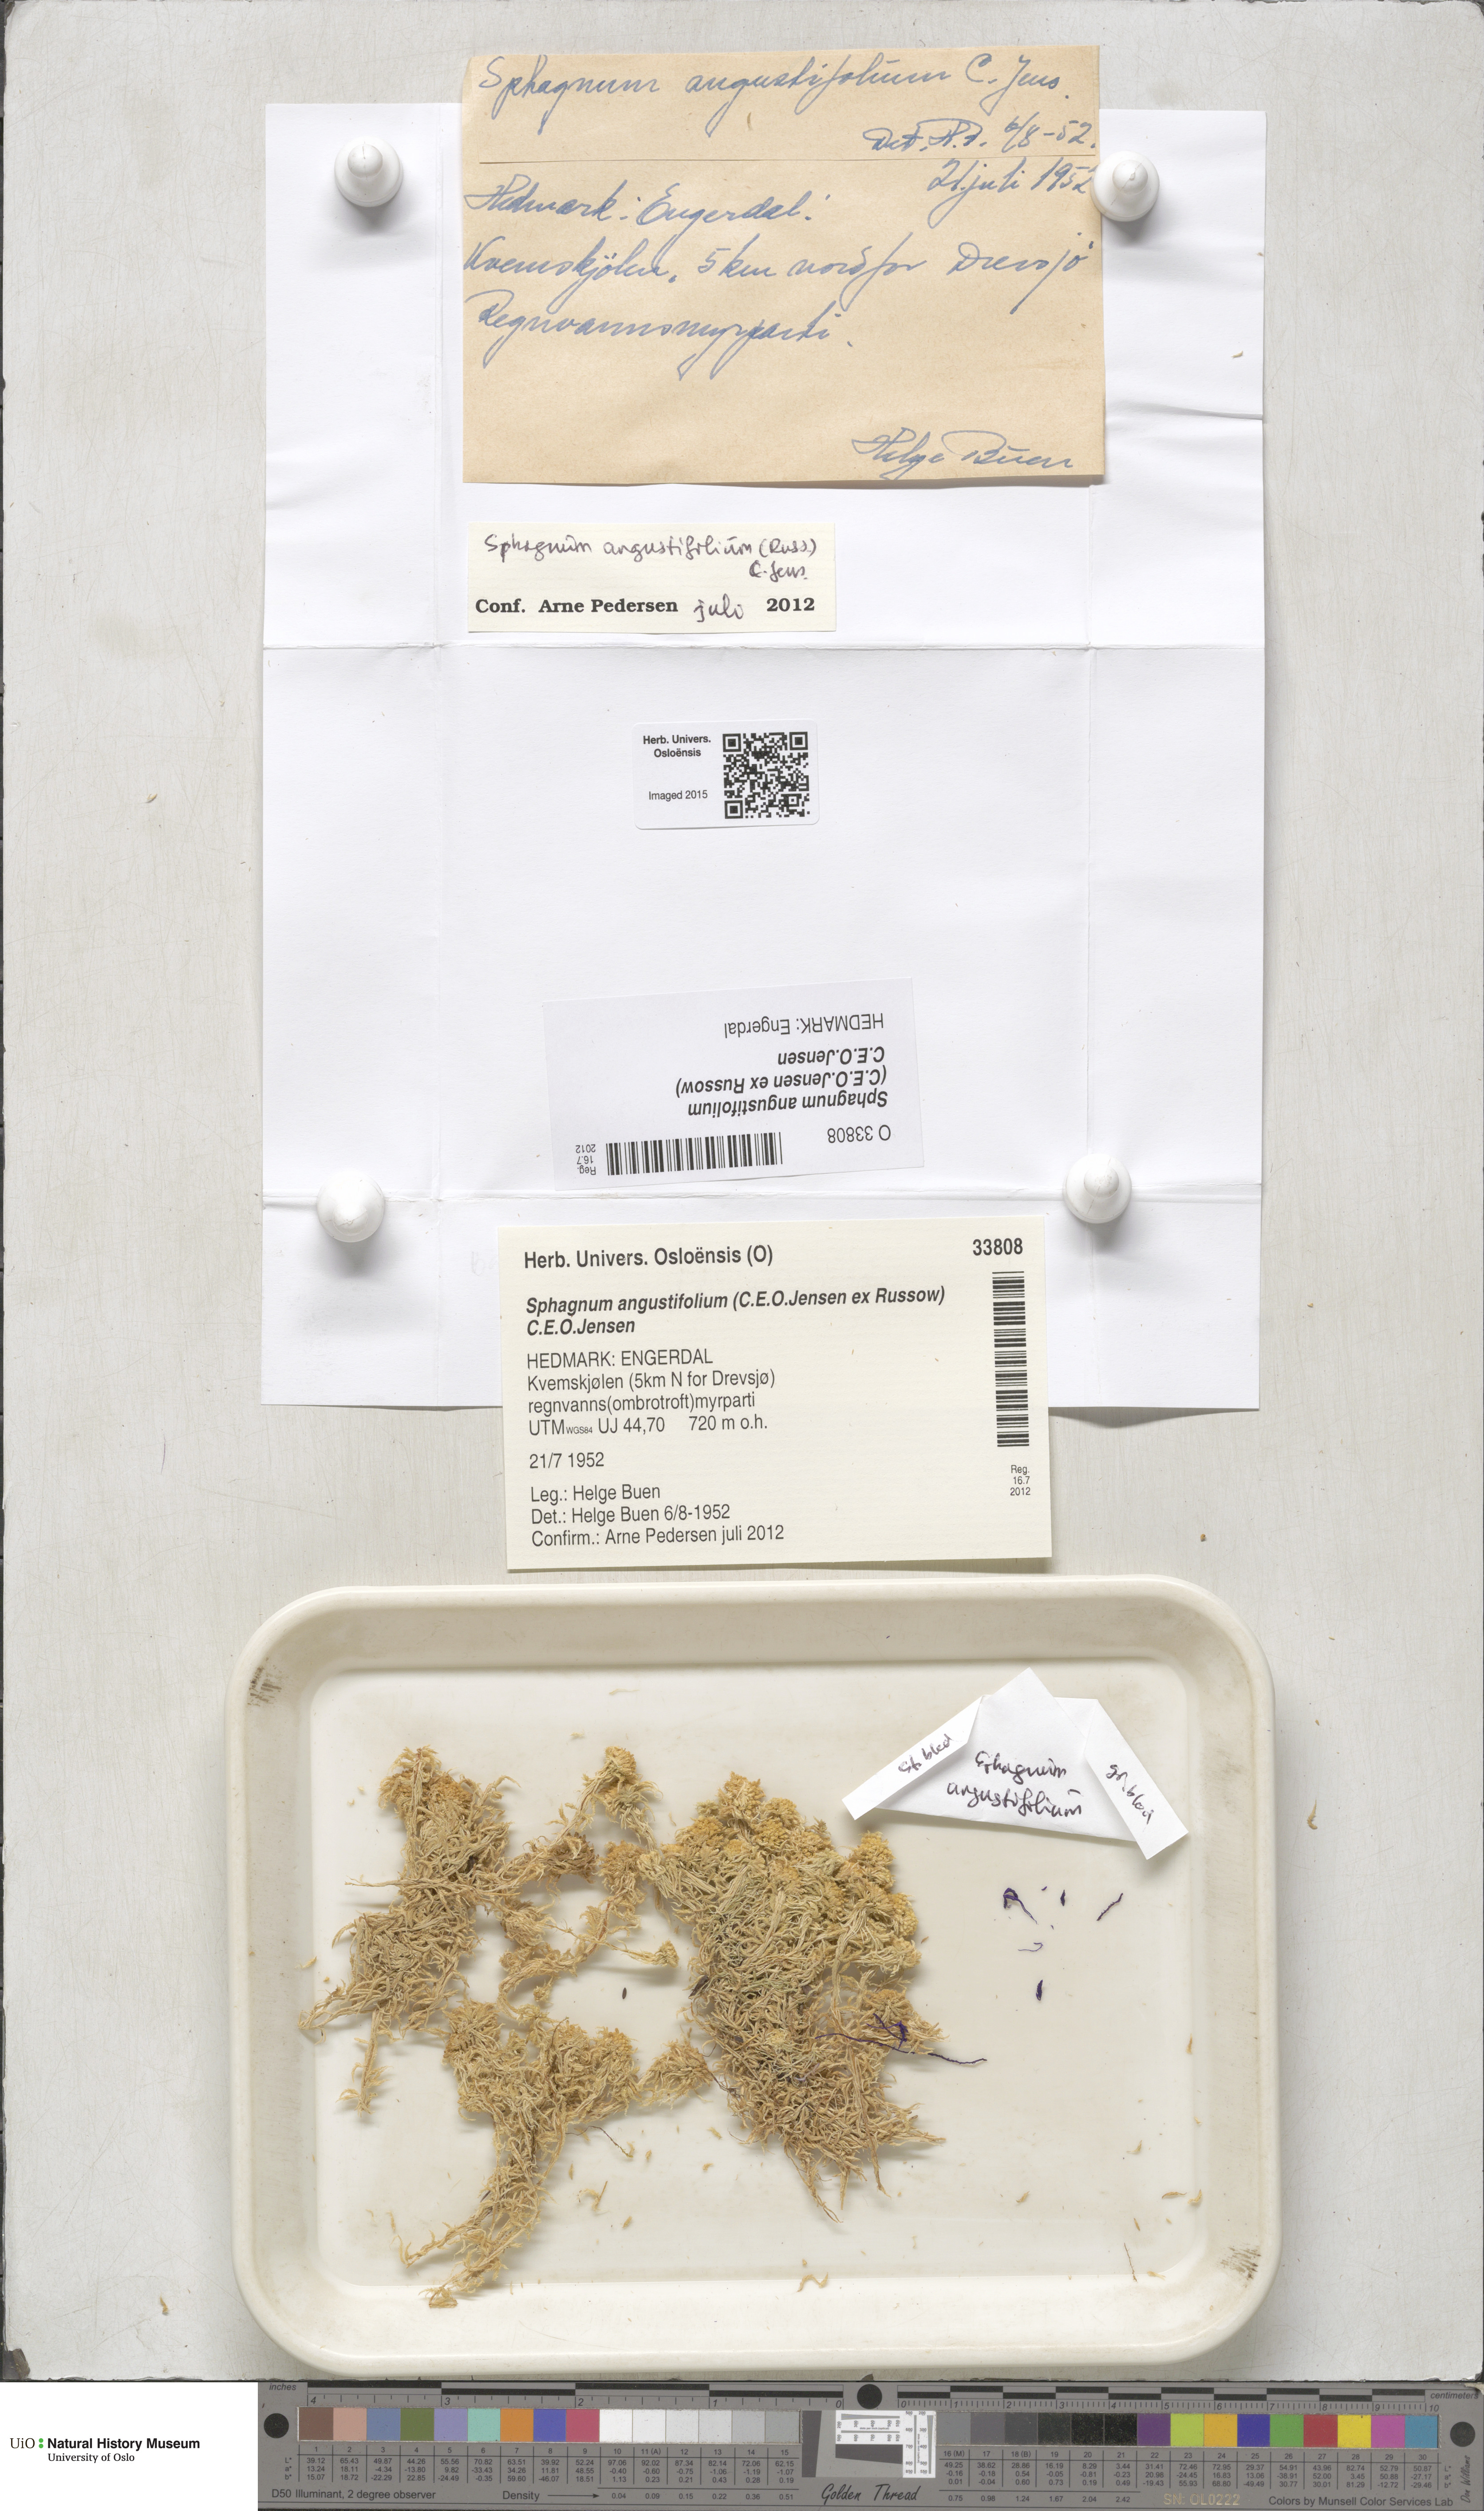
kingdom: Plantae
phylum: Bryophyta
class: Sphagnopsida
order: Sphagnales
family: Sphagnaceae
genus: Sphagnum
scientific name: Sphagnum angustifolium
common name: Narrow-leaved peat moss
